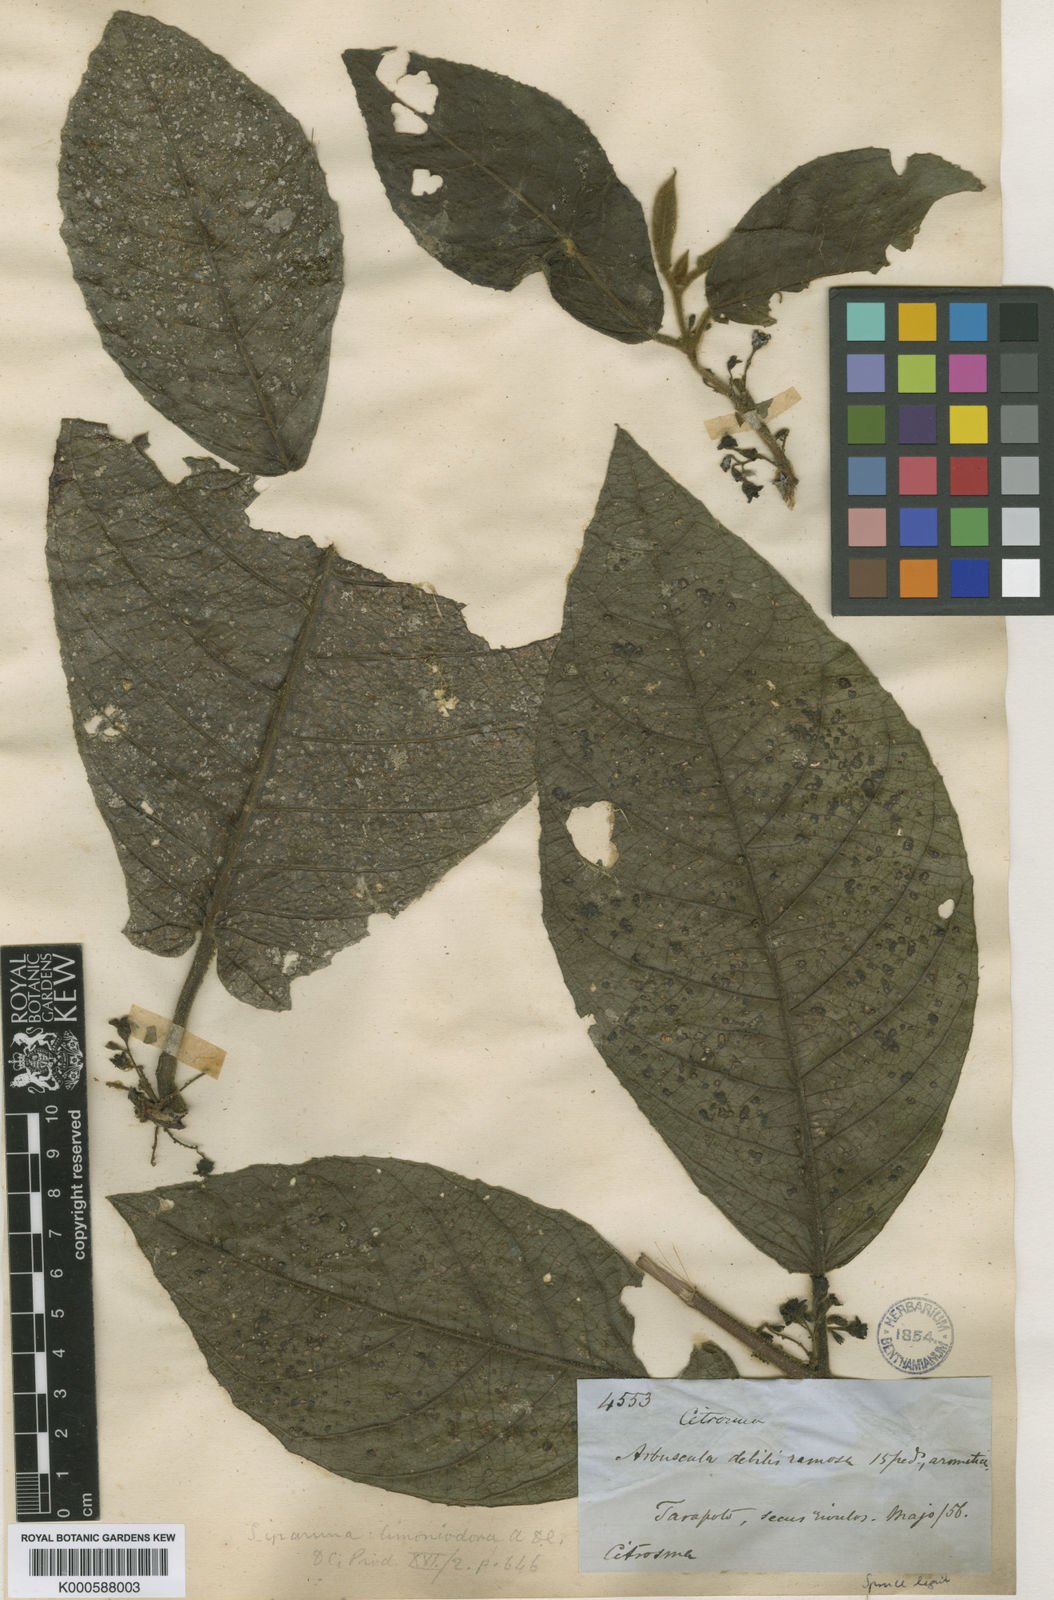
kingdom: Plantae
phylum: Tracheophyta
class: Magnoliopsida
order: Laurales
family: Siparunaceae
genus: Siparuna
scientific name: Siparuna aspera
